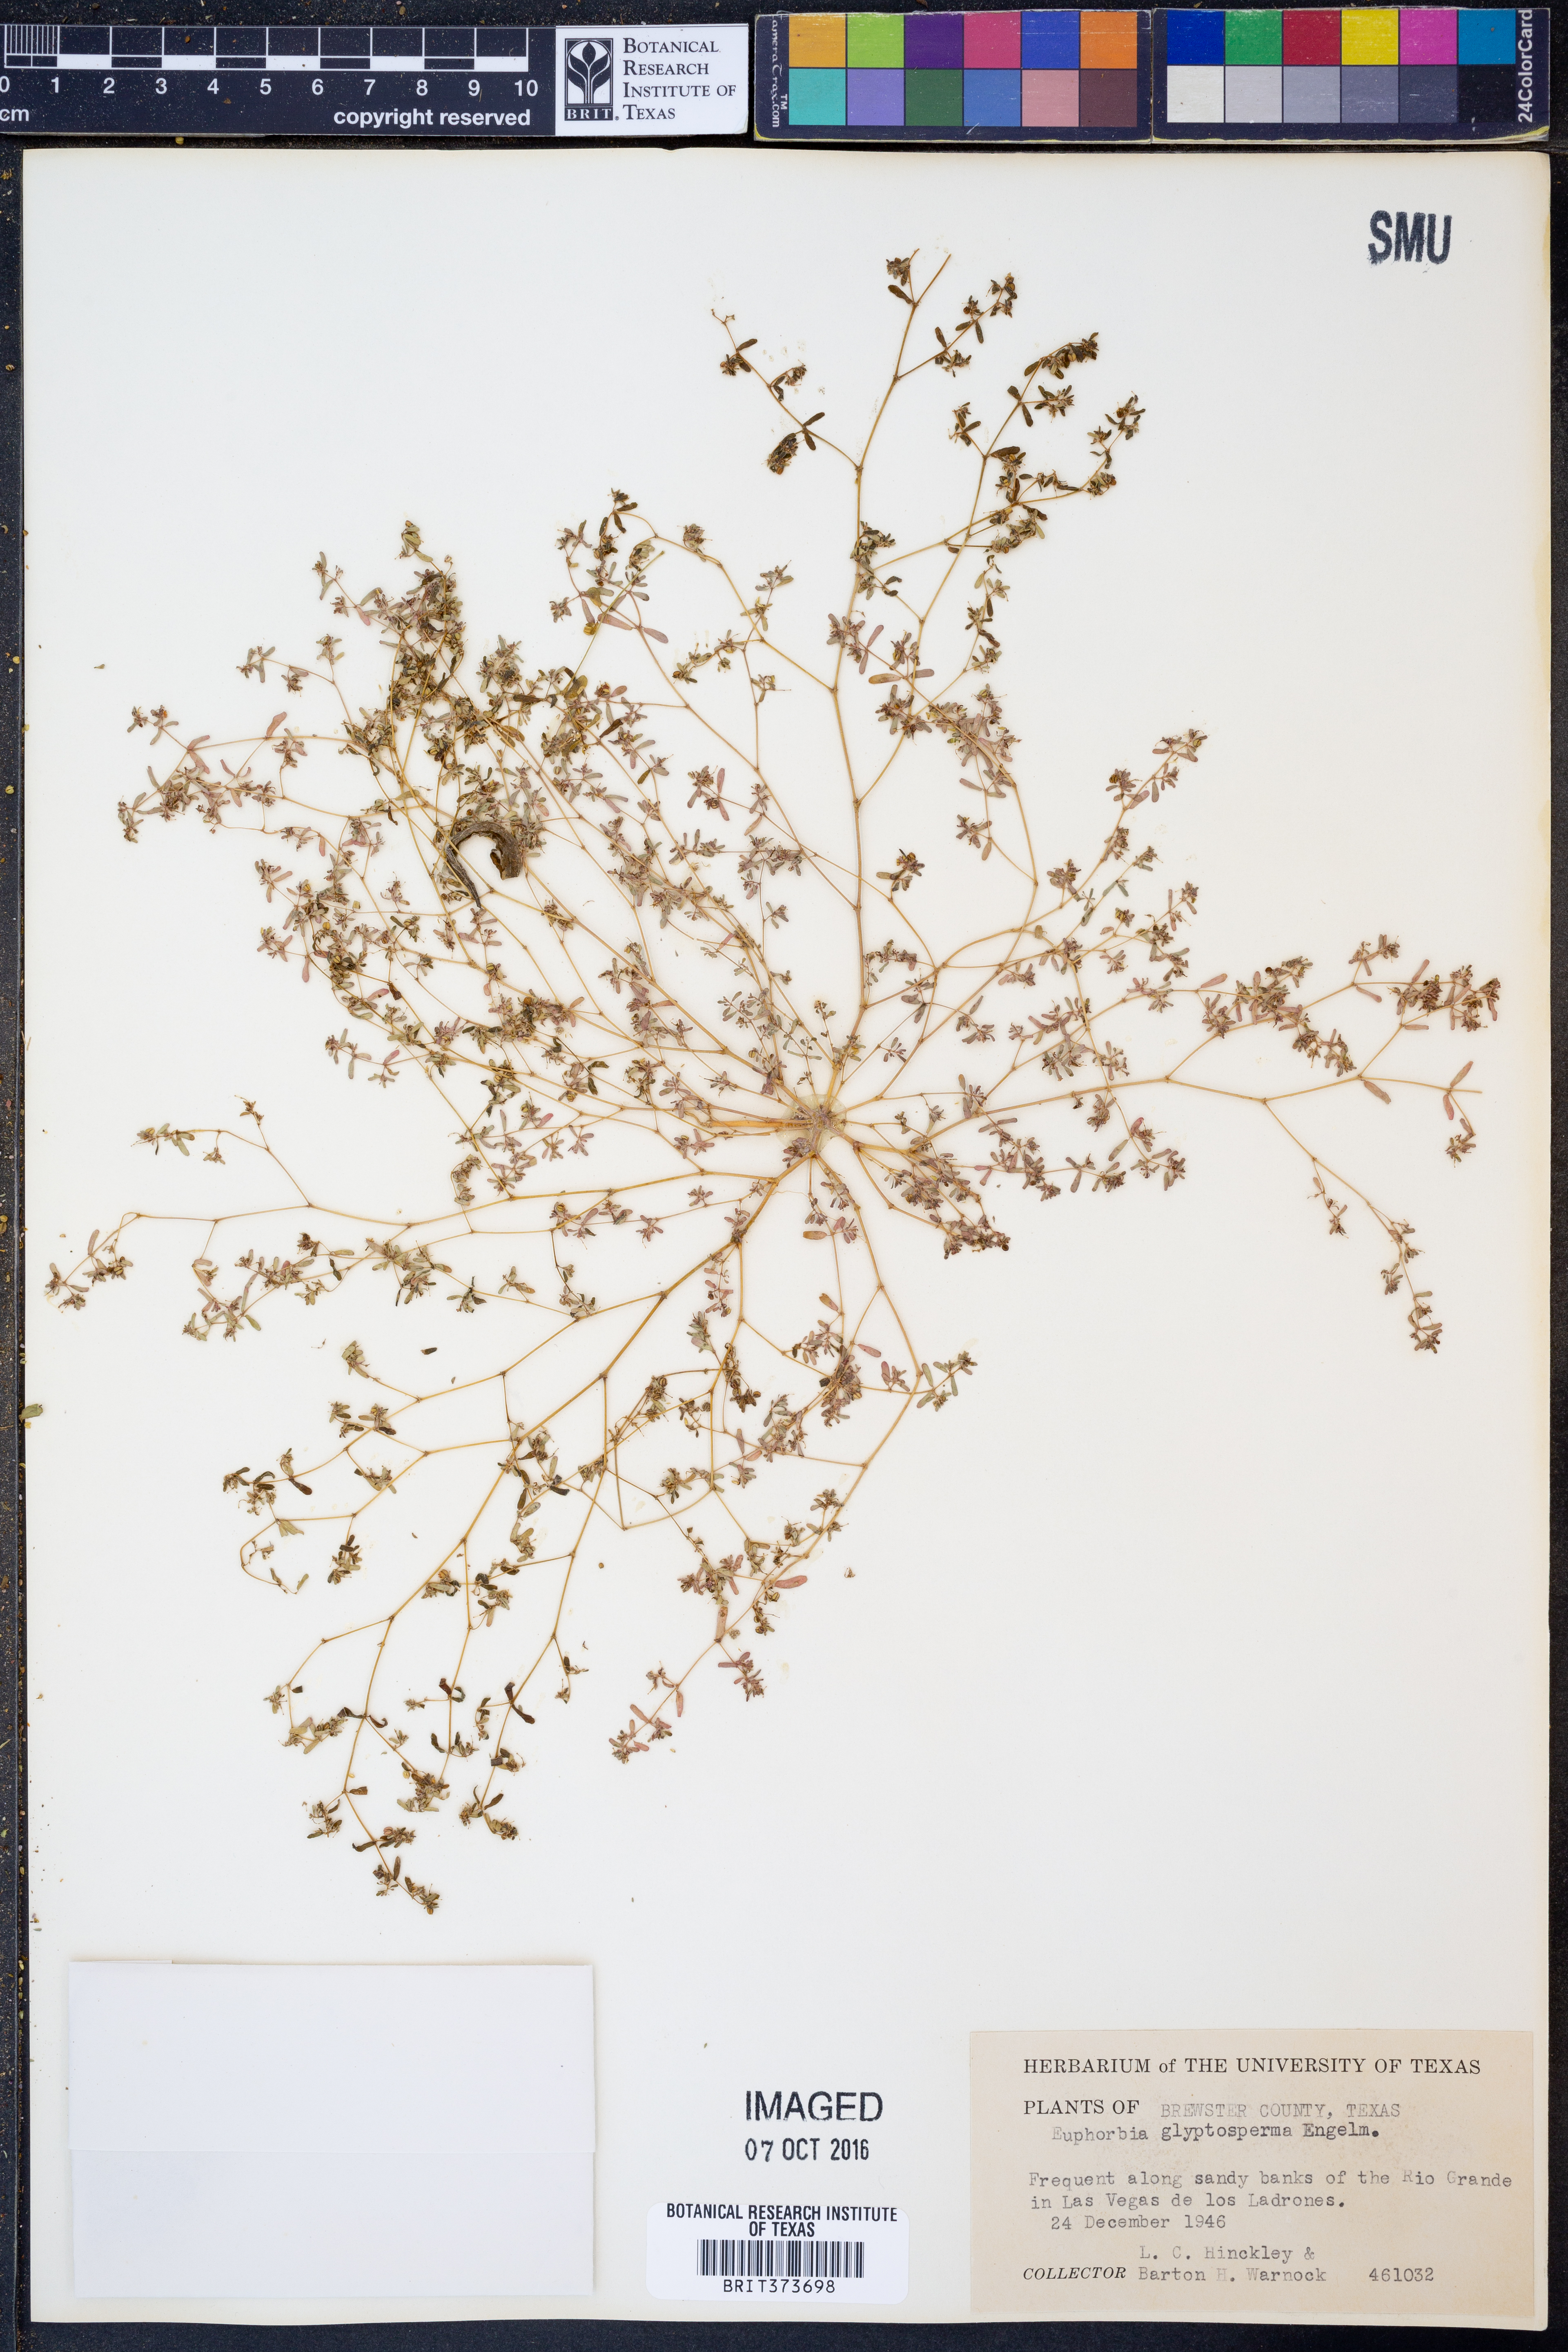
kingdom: Plantae
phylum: Tracheophyta
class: Magnoliopsida
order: Malpighiales
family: Euphorbiaceae
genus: Euphorbia
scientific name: Euphorbia glyptosperma
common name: Corrugate-seeded spurge
